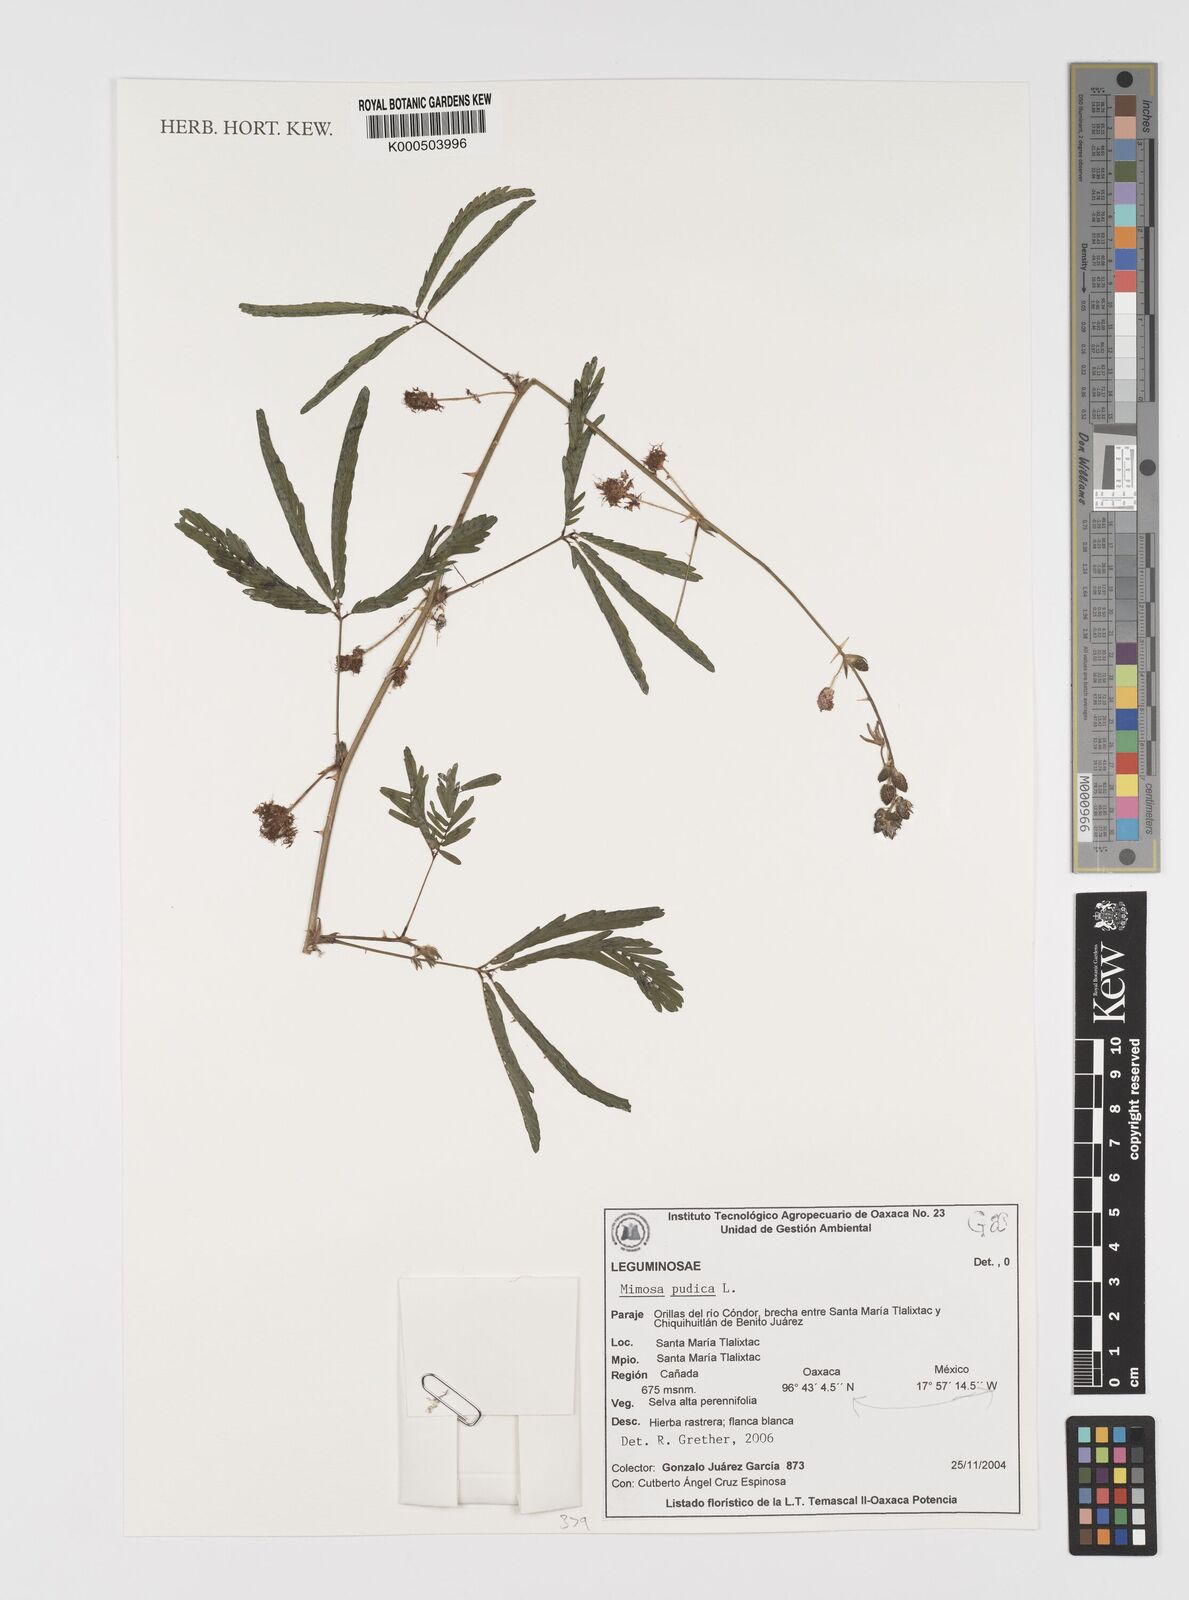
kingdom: Plantae
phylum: Tracheophyta
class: Magnoliopsida
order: Fabales
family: Fabaceae
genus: Mimosa
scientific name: Mimosa pudica
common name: Sensitive plant
